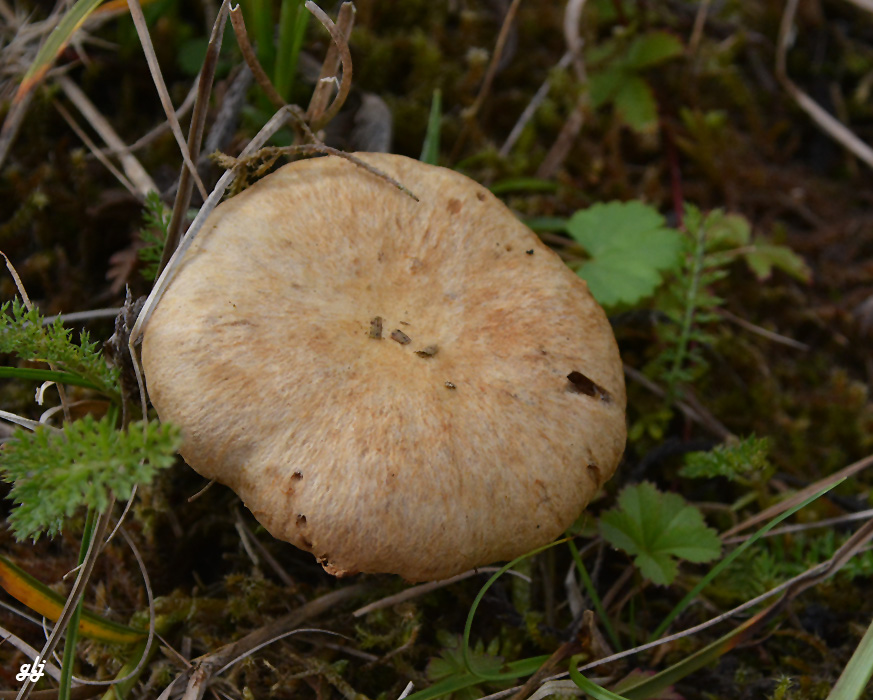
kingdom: Fungi
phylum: Basidiomycota
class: Agaricomycetes
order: Agaricales
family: Inocybaceae
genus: Mallocybe
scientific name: Mallocybe
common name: Trævlhat
